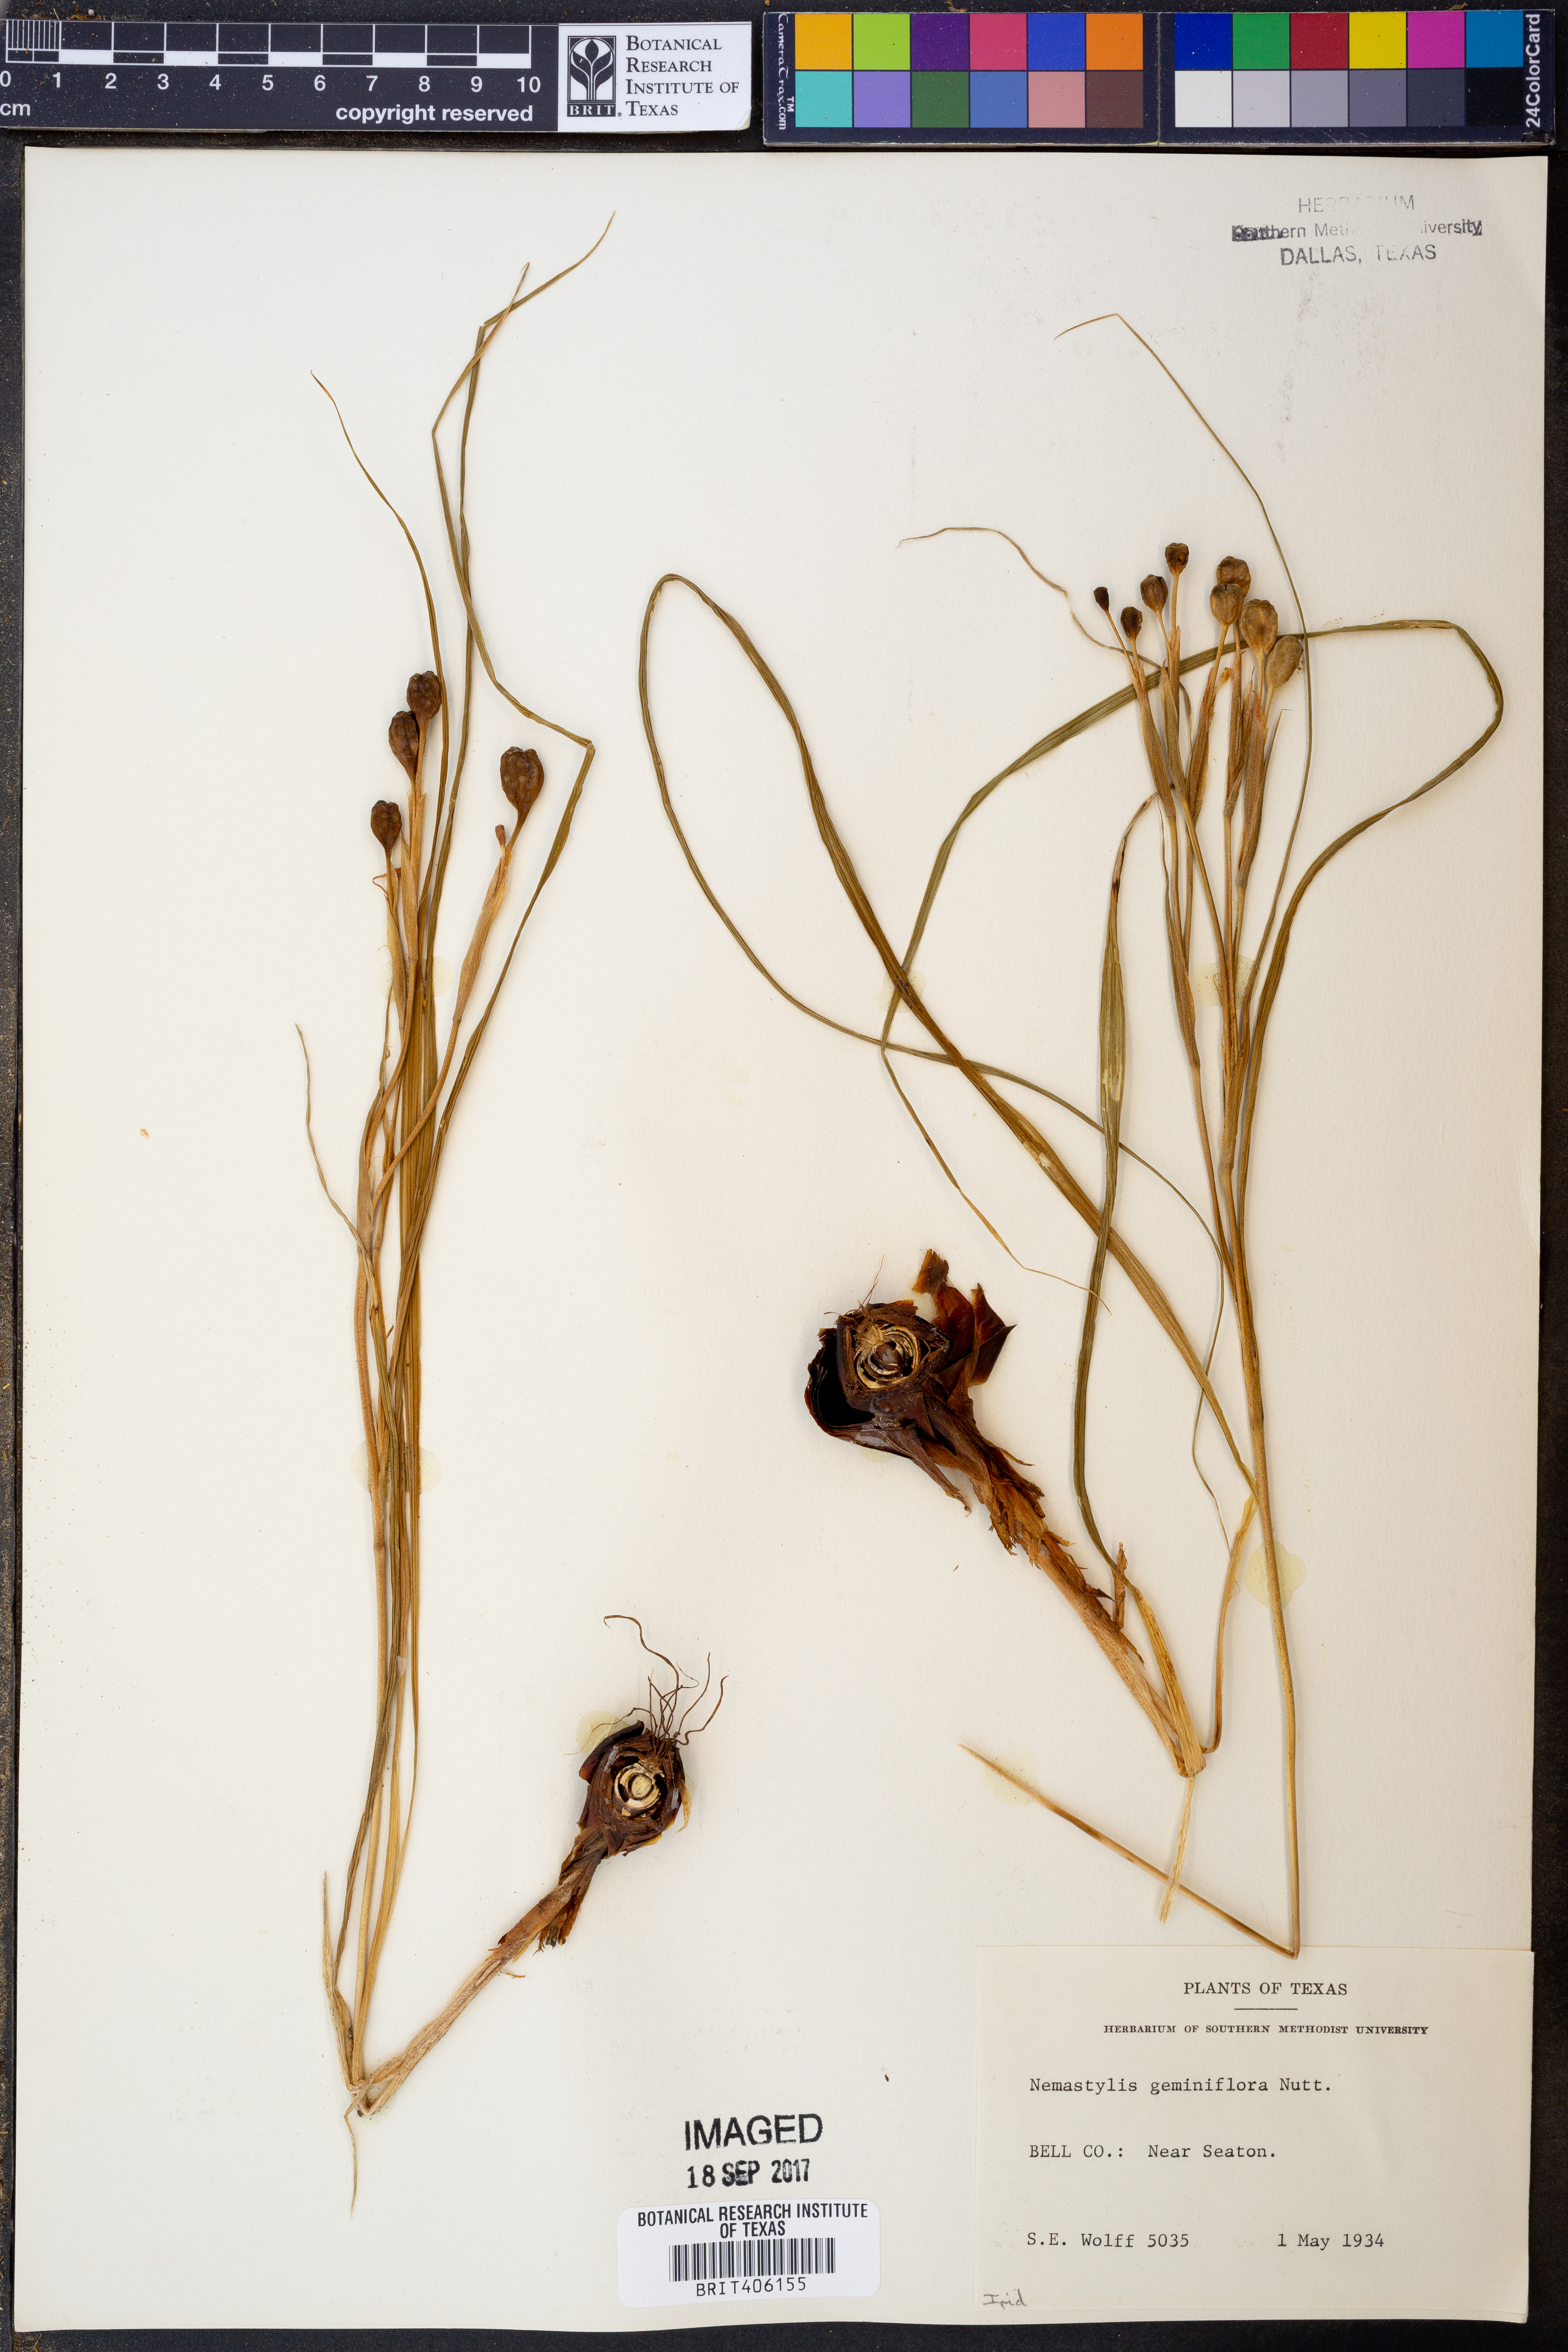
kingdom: Plantae
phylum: Tracheophyta
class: Liliopsida
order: Asparagales
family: Iridaceae
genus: Nemastylis
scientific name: Nemastylis geminiflora
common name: Prairie celestial
